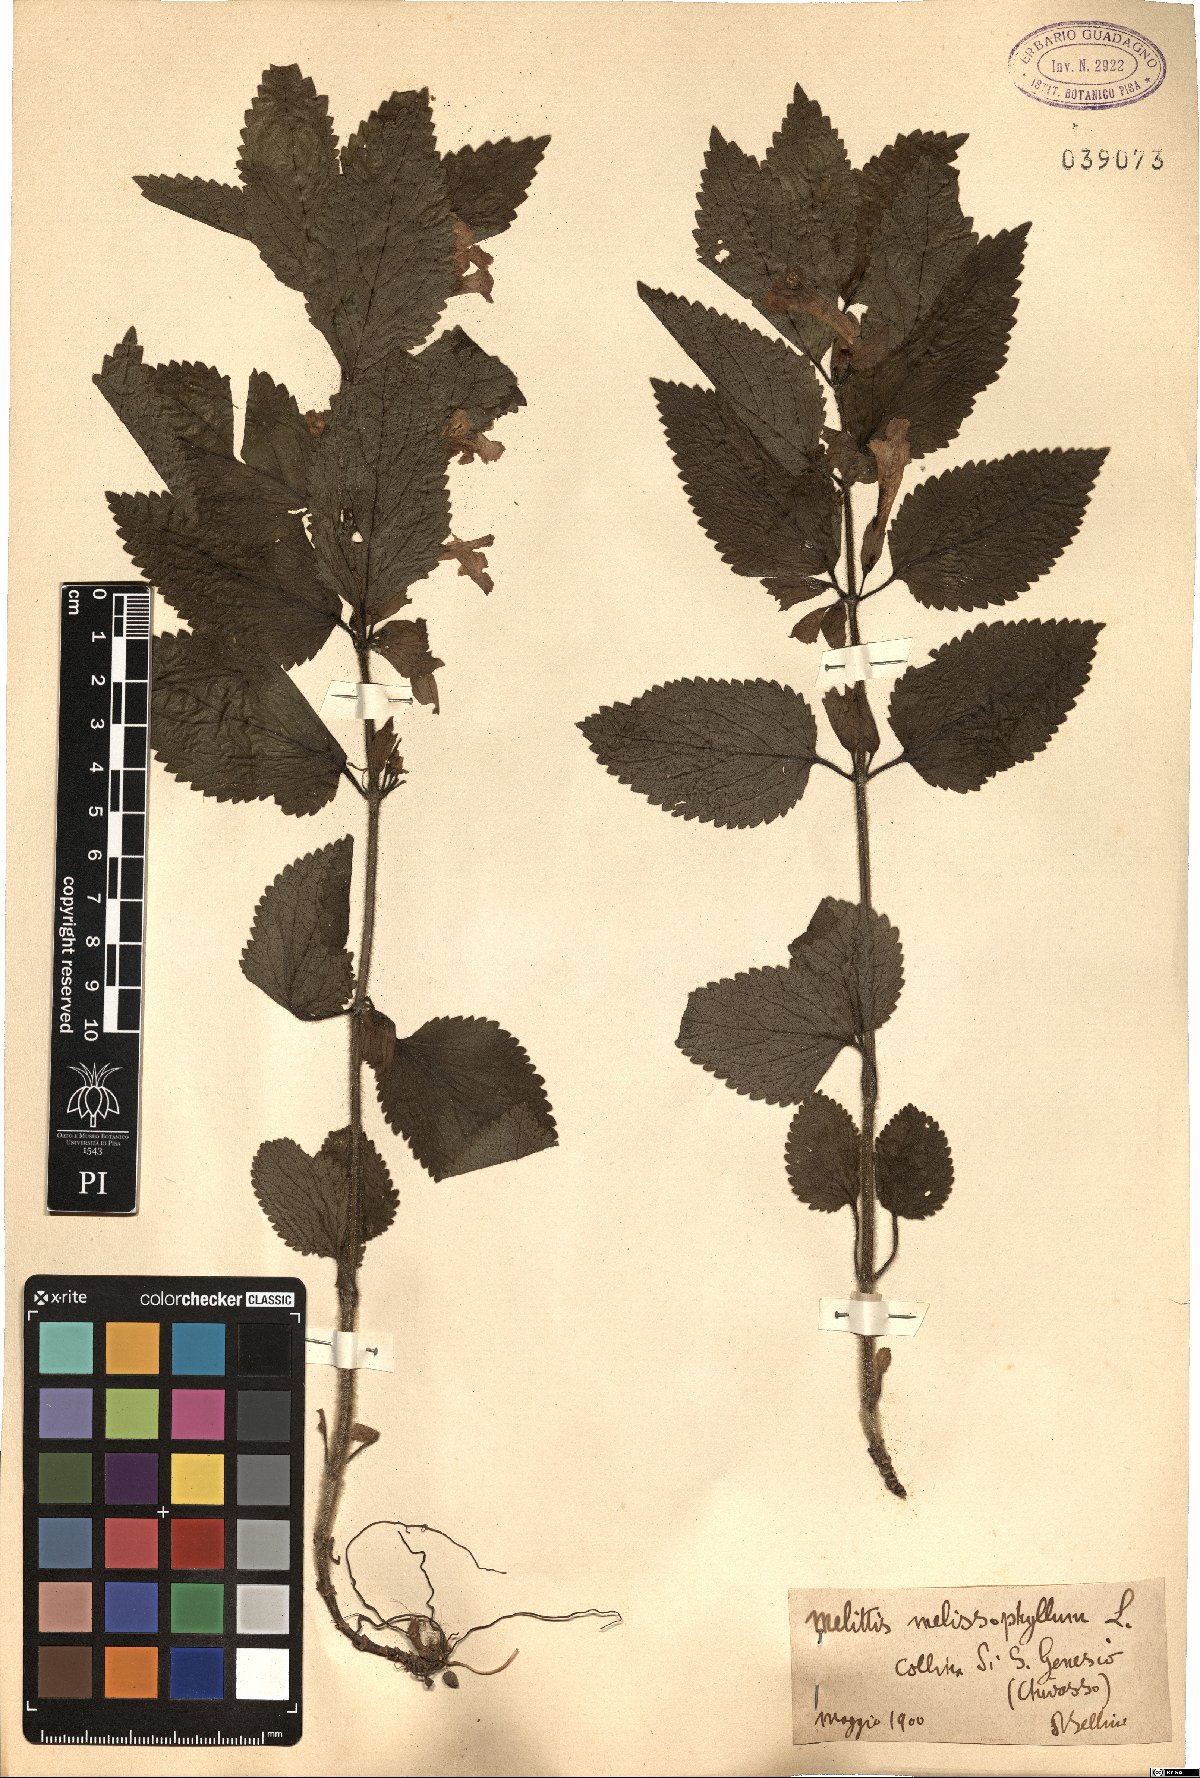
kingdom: Plantae
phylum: Tracheophyta
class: Magnoliopsida
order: Lamiales
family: Lamiaceae
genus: Melittis
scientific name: Melittis melissophyllum
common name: Bastard balm
